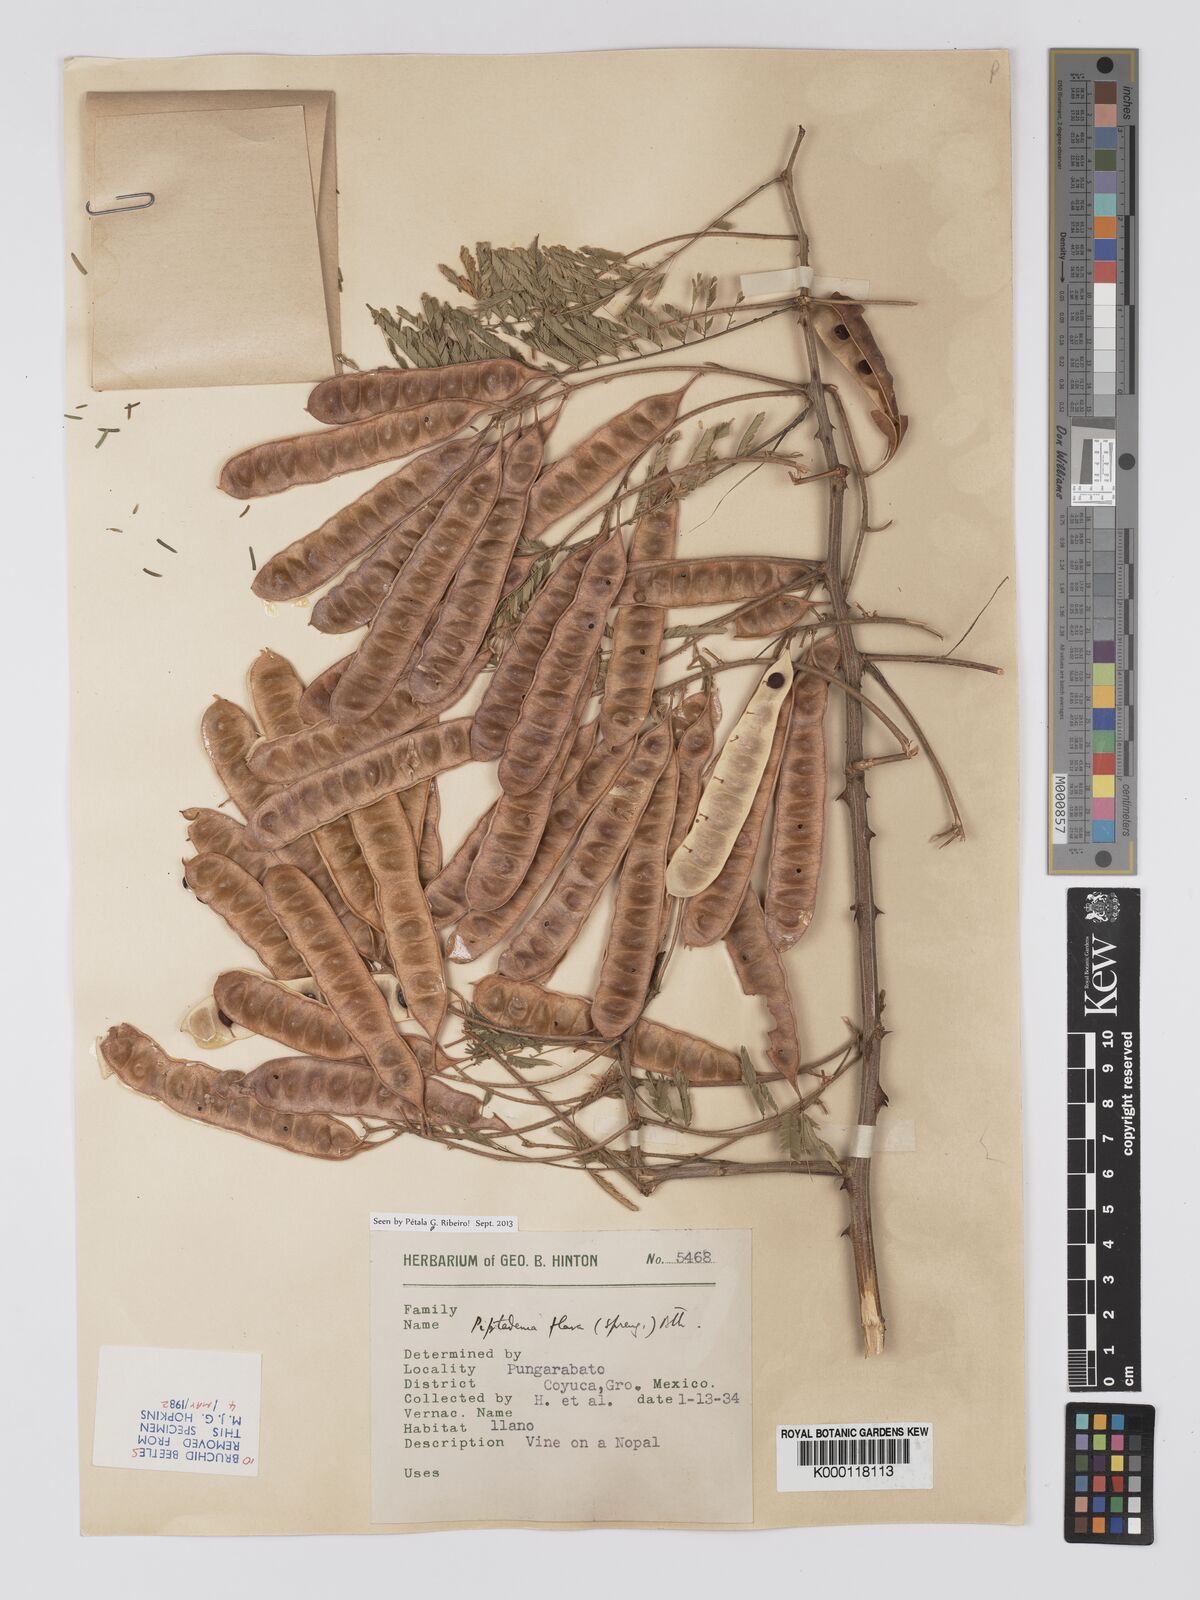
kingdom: Plantae
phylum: Tracheophyta
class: Magnoliopsida
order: Fabales
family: Fabaceae
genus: Piptadenia
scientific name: Piptadenia
